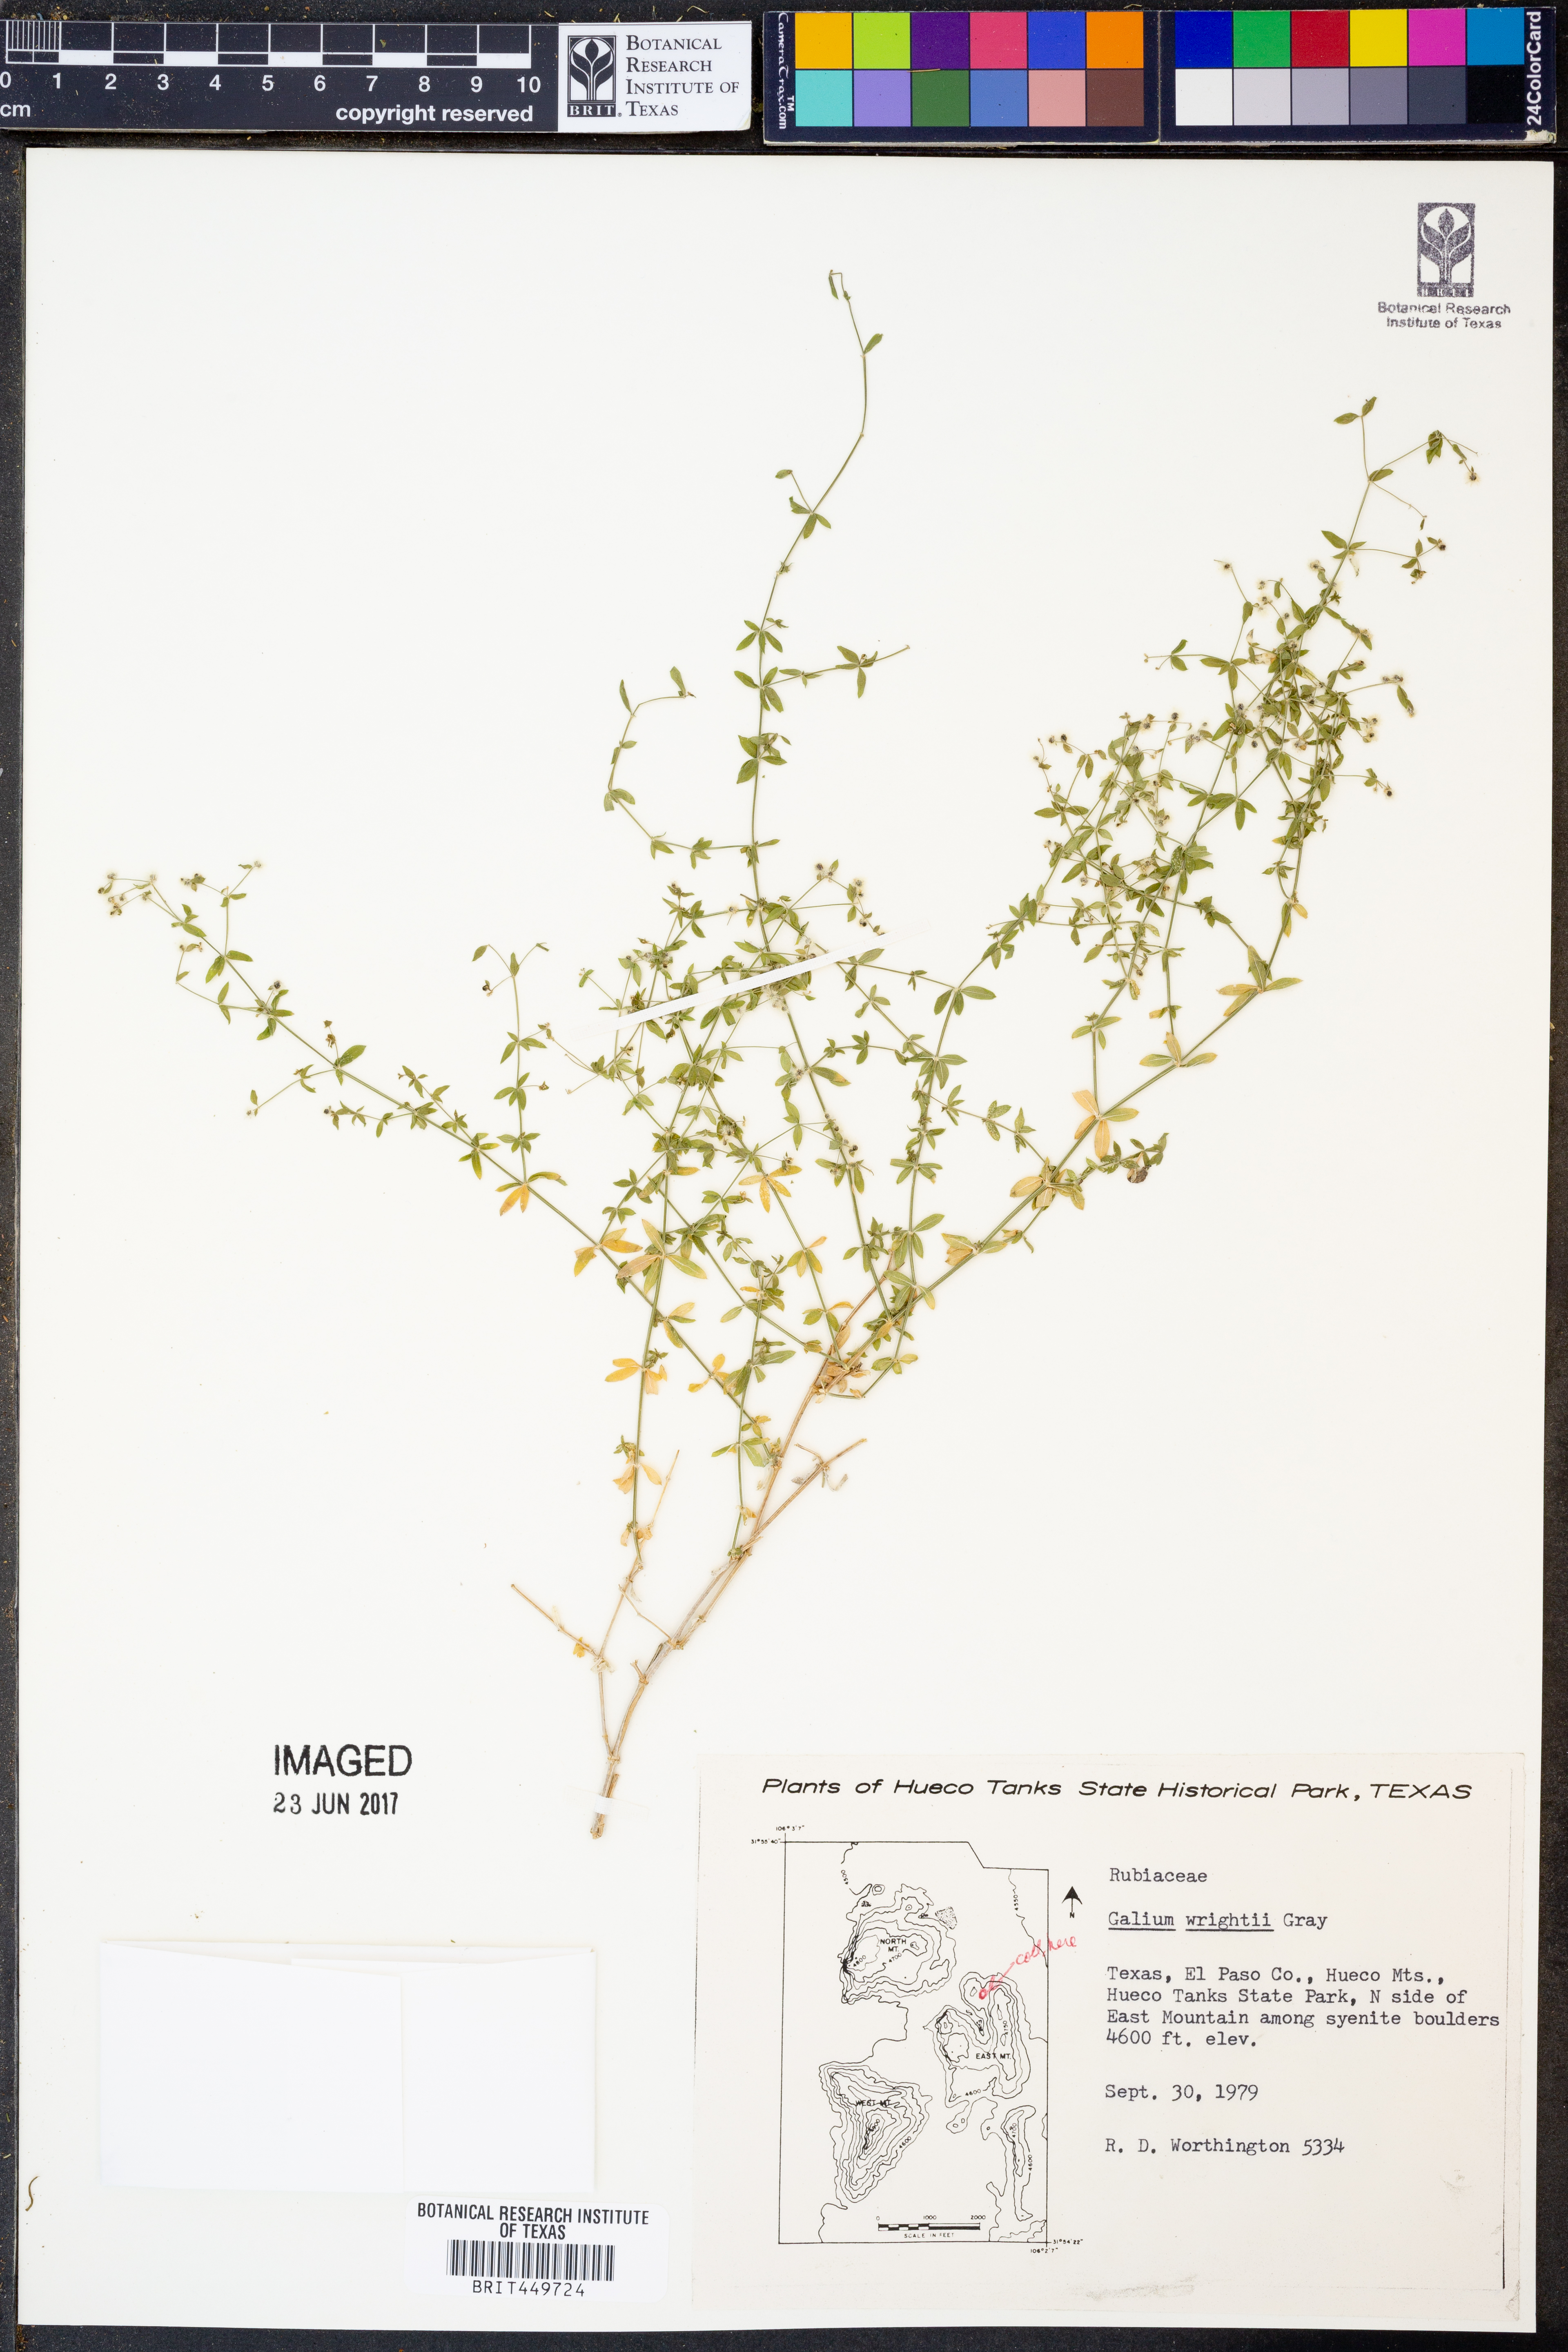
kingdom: Plantae
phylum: Tracheophyta
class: Magnoliopsida
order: Gentianales
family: Rubiaceae
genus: Galium
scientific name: Galium wrightii
